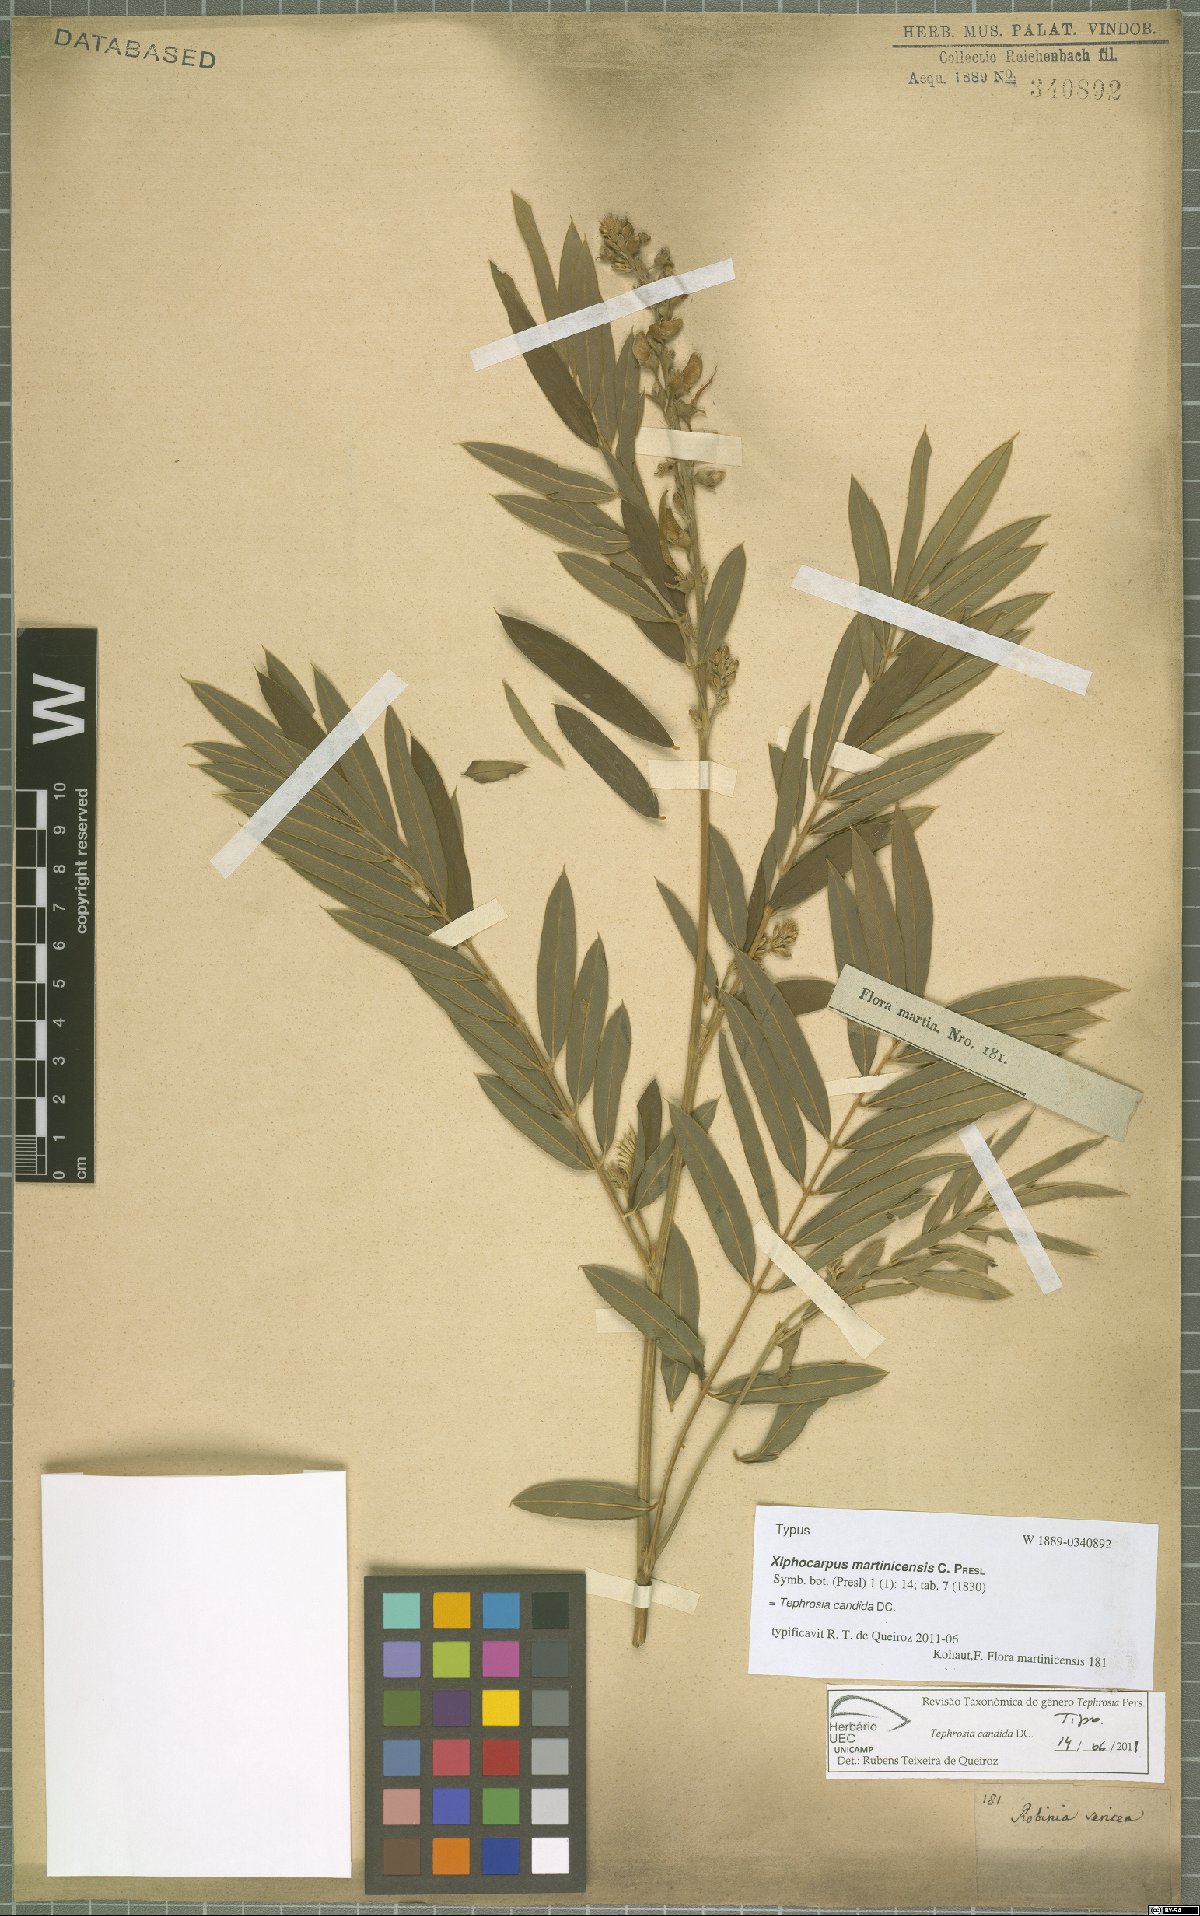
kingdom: Plantae
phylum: Tracheophyta
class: Magnoliopsida
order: Fabales
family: Fabaceae
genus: Tephrosia
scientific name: Tephrosia candida
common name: White tephrosia
